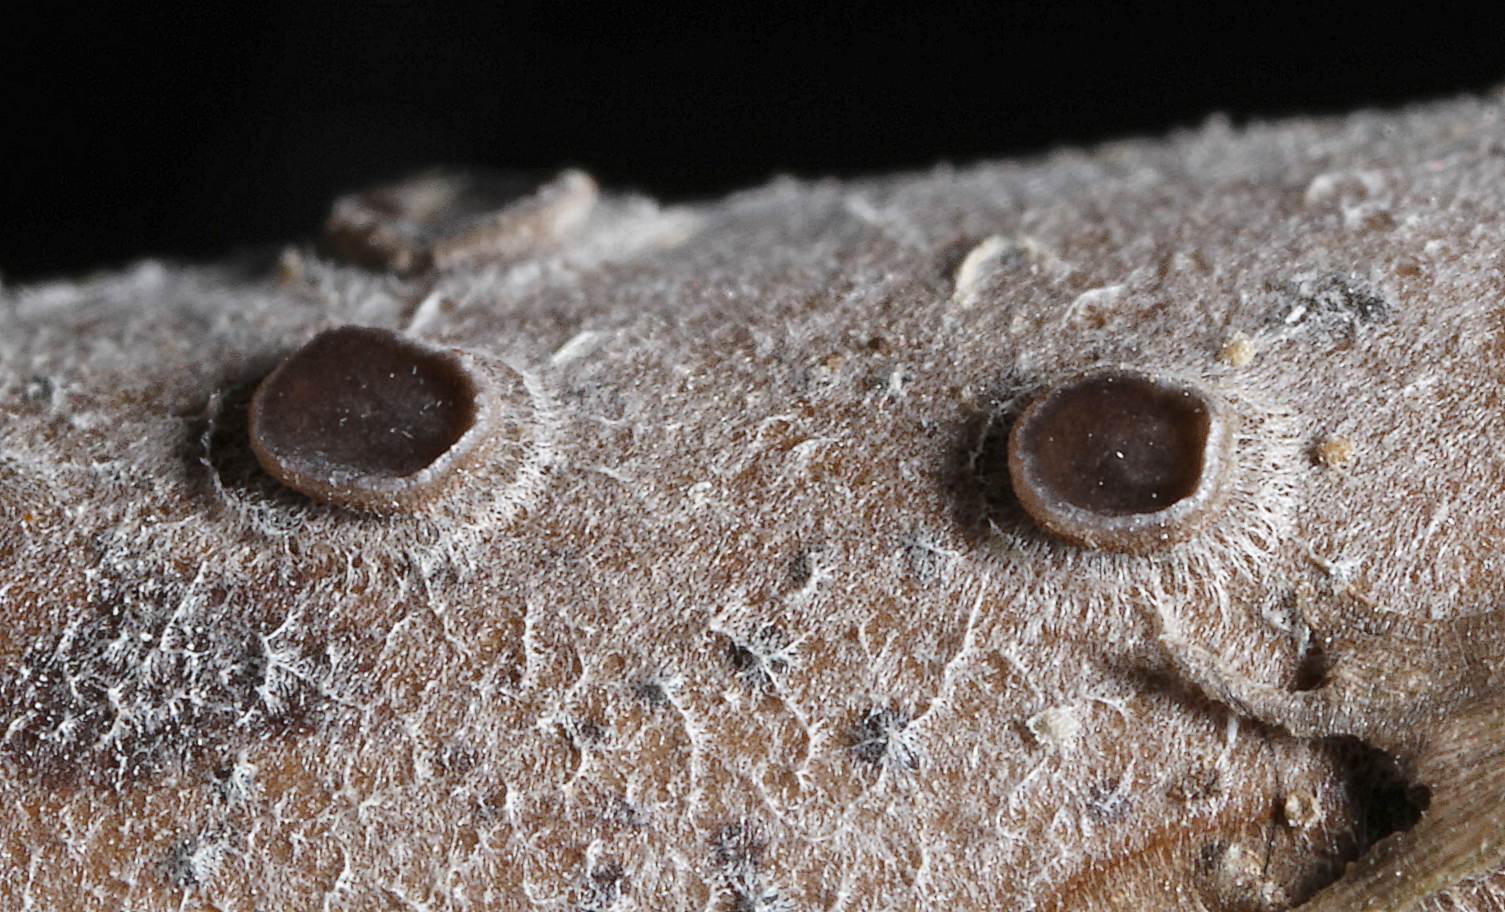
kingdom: Fungi
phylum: Ascomycota
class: Leotiomycetes
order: Helotiales
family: Mollisiaceae
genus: Mollisia
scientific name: Mollisia hydrophila
